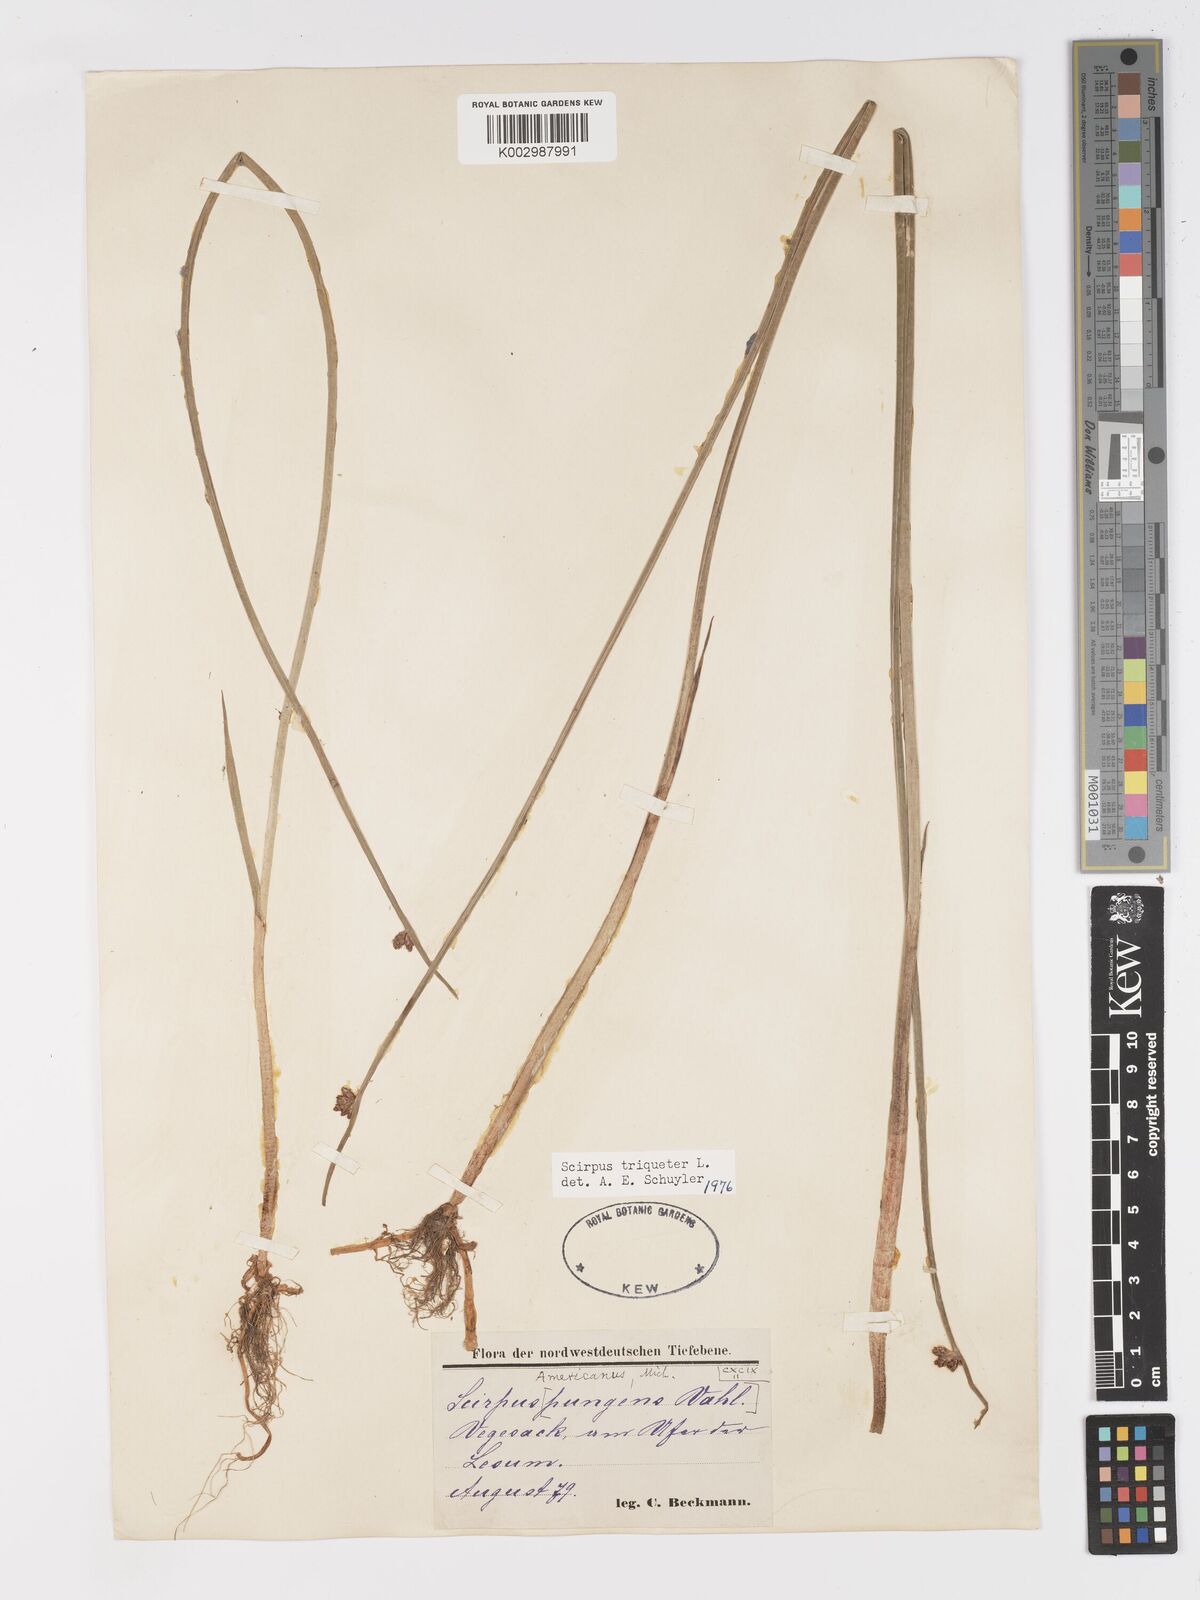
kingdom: Plantae
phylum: Tracheophyta
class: Liliopsida
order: Poales
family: Cyperaceae
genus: Schoenoplectus
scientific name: Schoenoplectus triqueter
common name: Triangular club-rush
